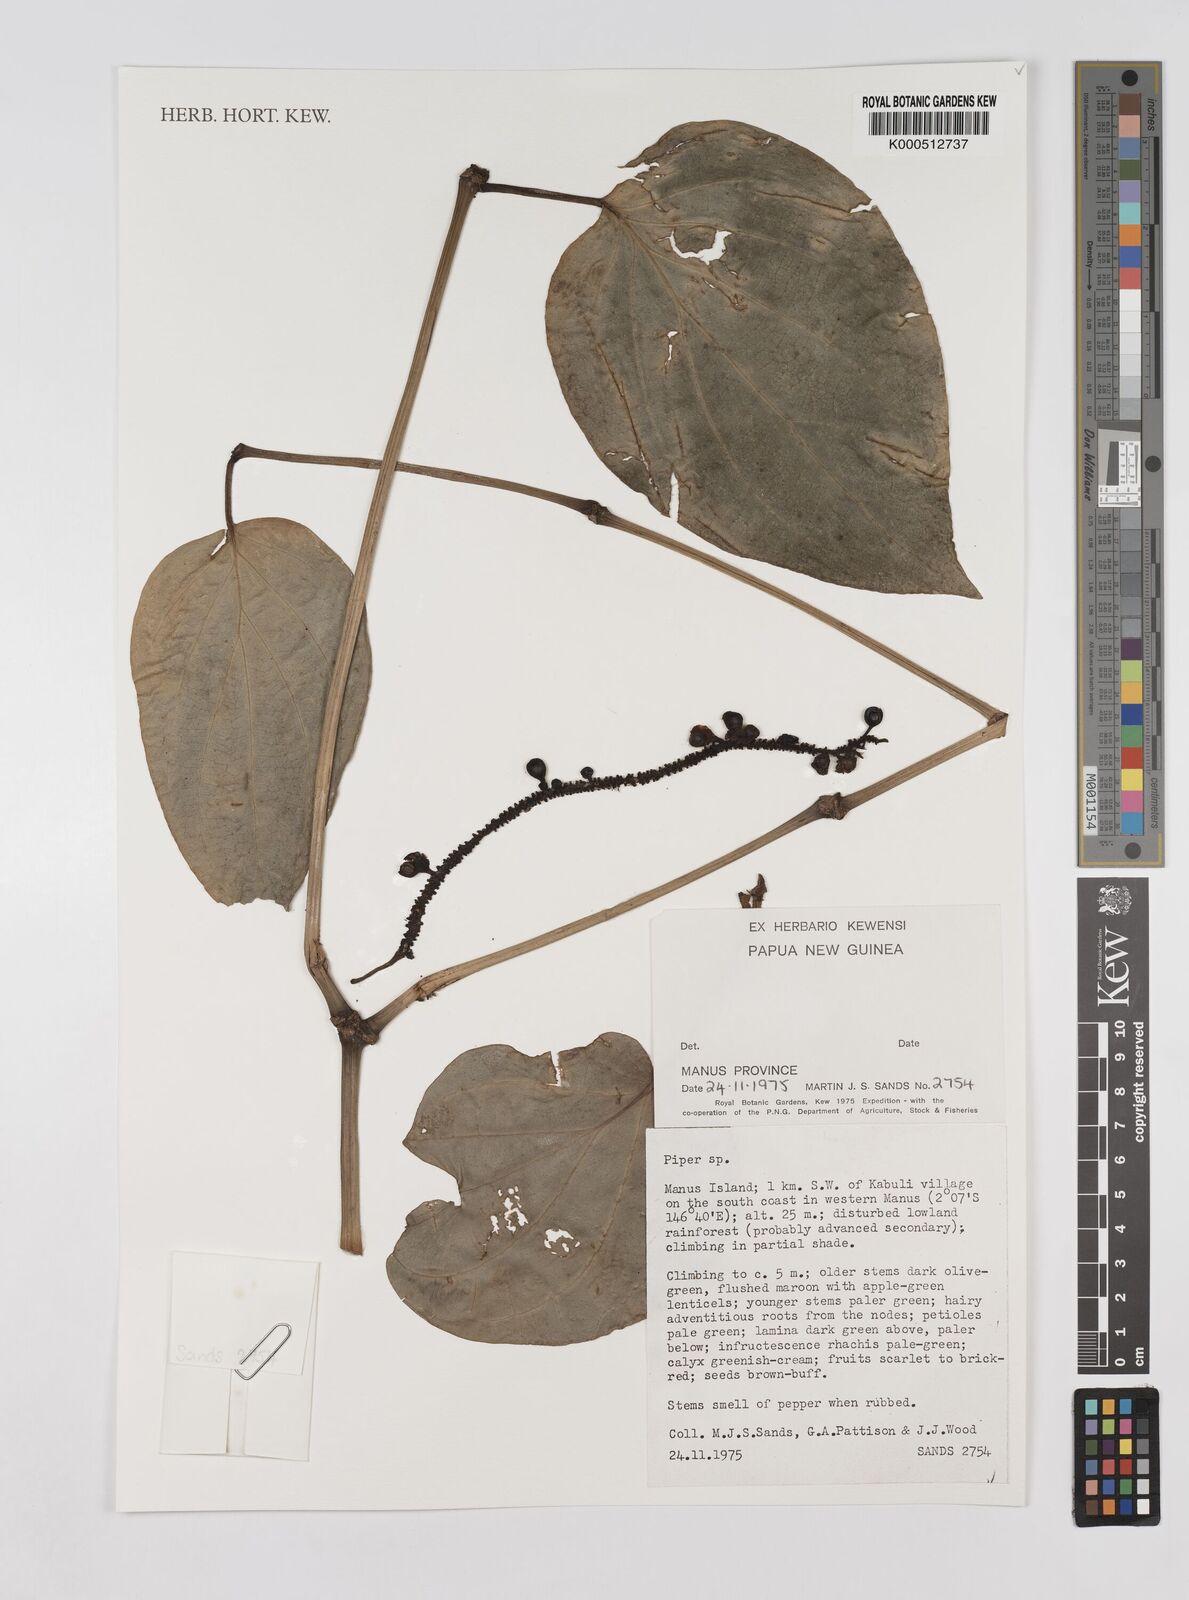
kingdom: Plantae
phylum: Tracheophyta
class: Magnoliopsida
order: Piperales
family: Piperaceae
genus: Piper
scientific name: Piper
